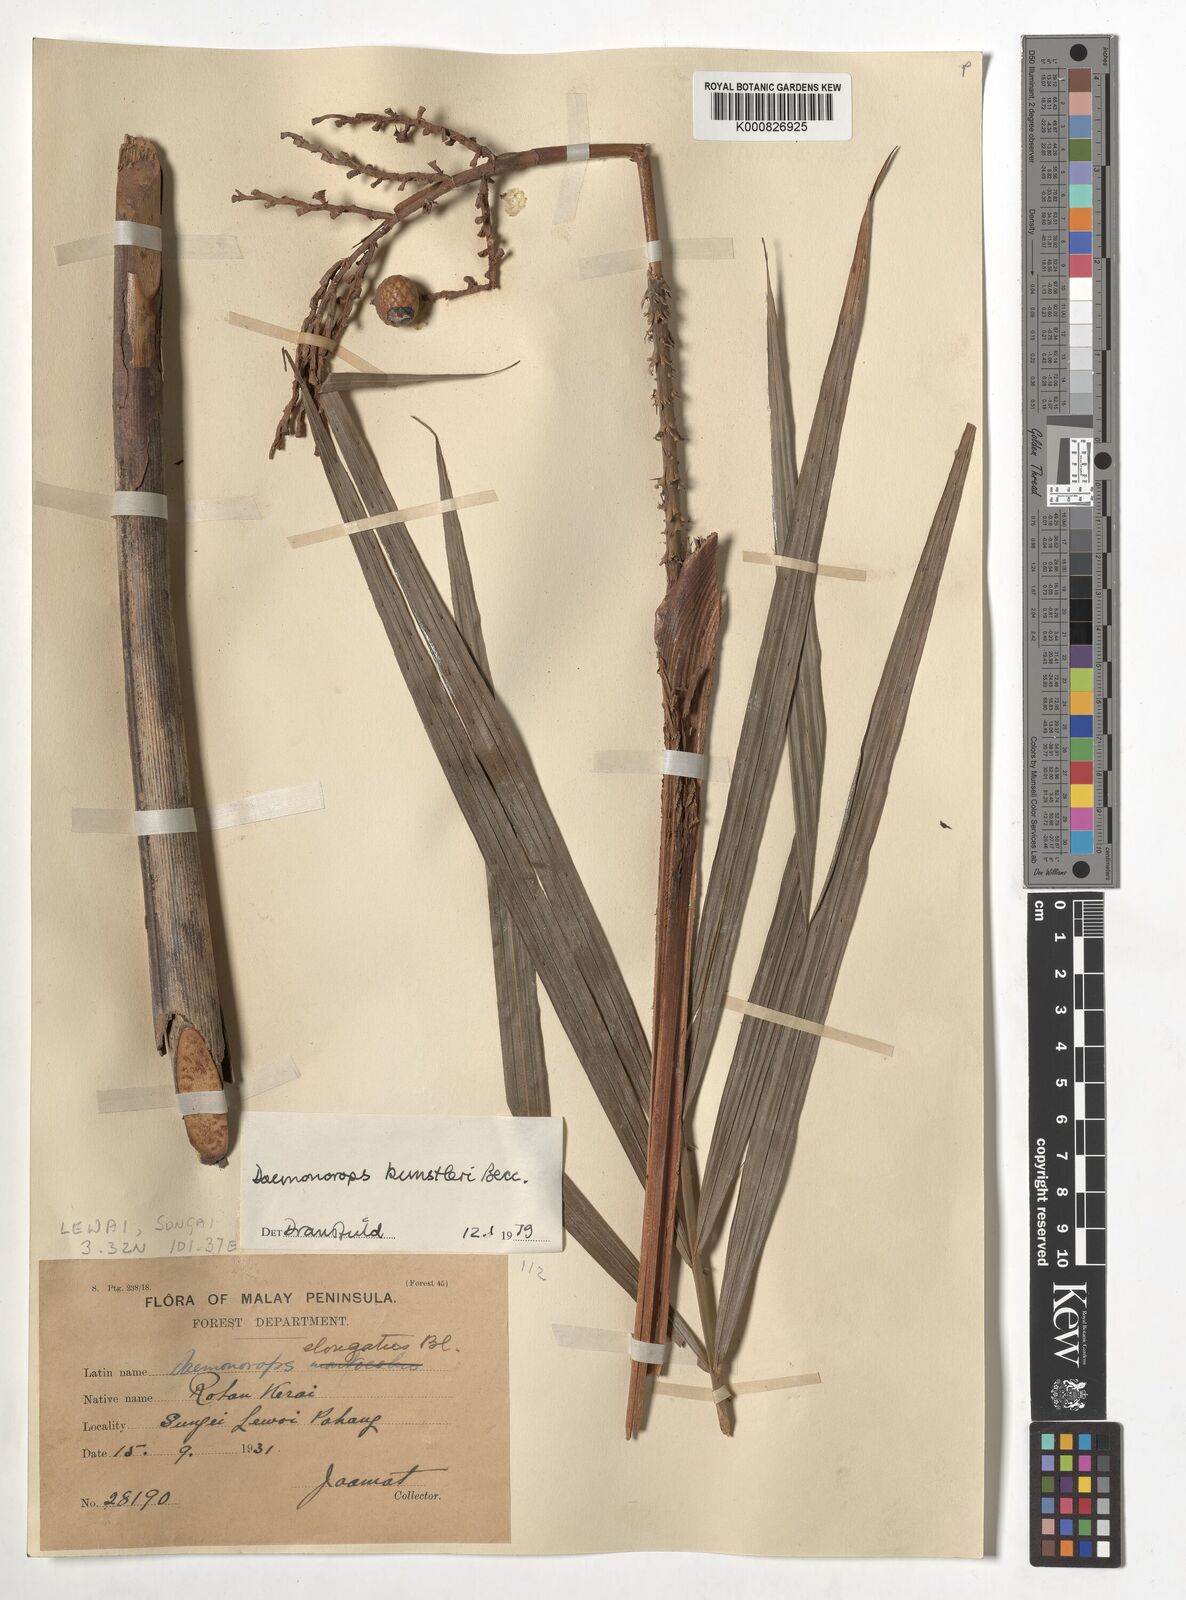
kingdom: Plantae
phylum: Tracheophyta
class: Liliopsida
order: Arecales
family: Arecaceae
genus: Calamus
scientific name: Calamus kunstleri
